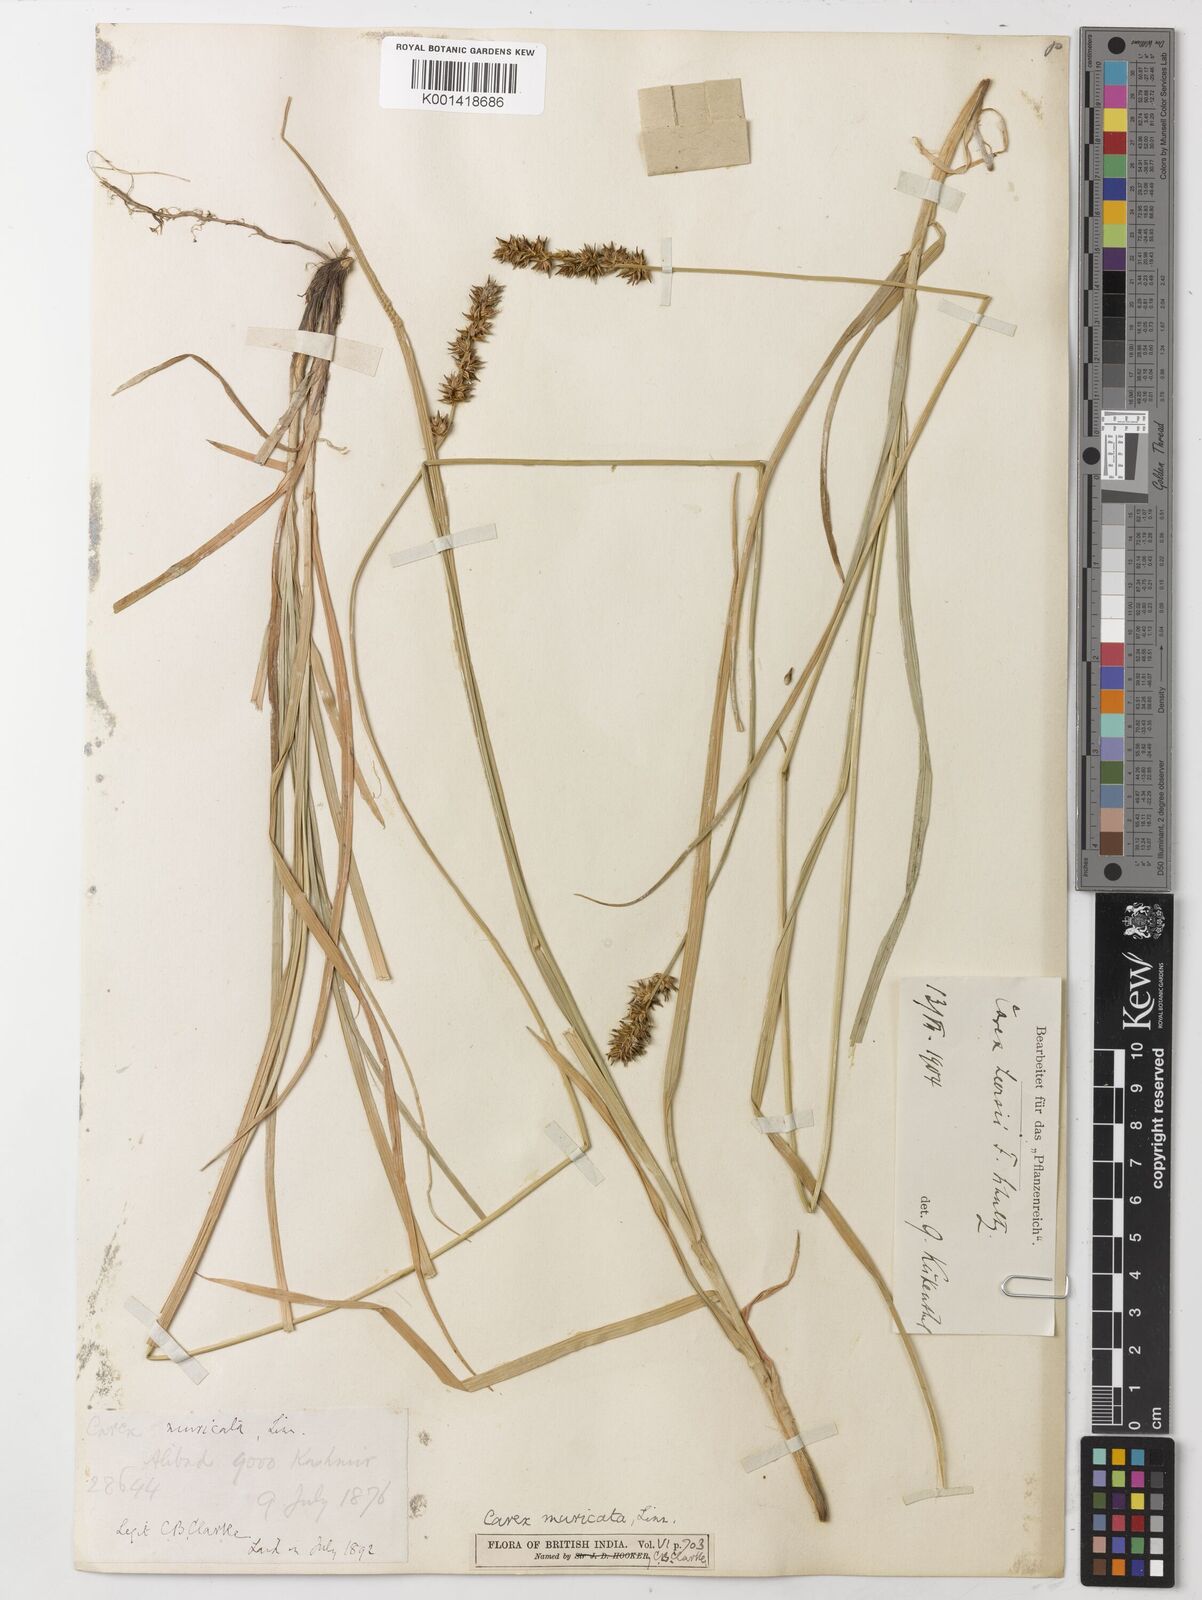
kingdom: Plantae
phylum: Tracheophyta
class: Liliopsida
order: Poales
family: Cyperaceae
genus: Carex
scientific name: Carex flava
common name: Large yellow-sedge
